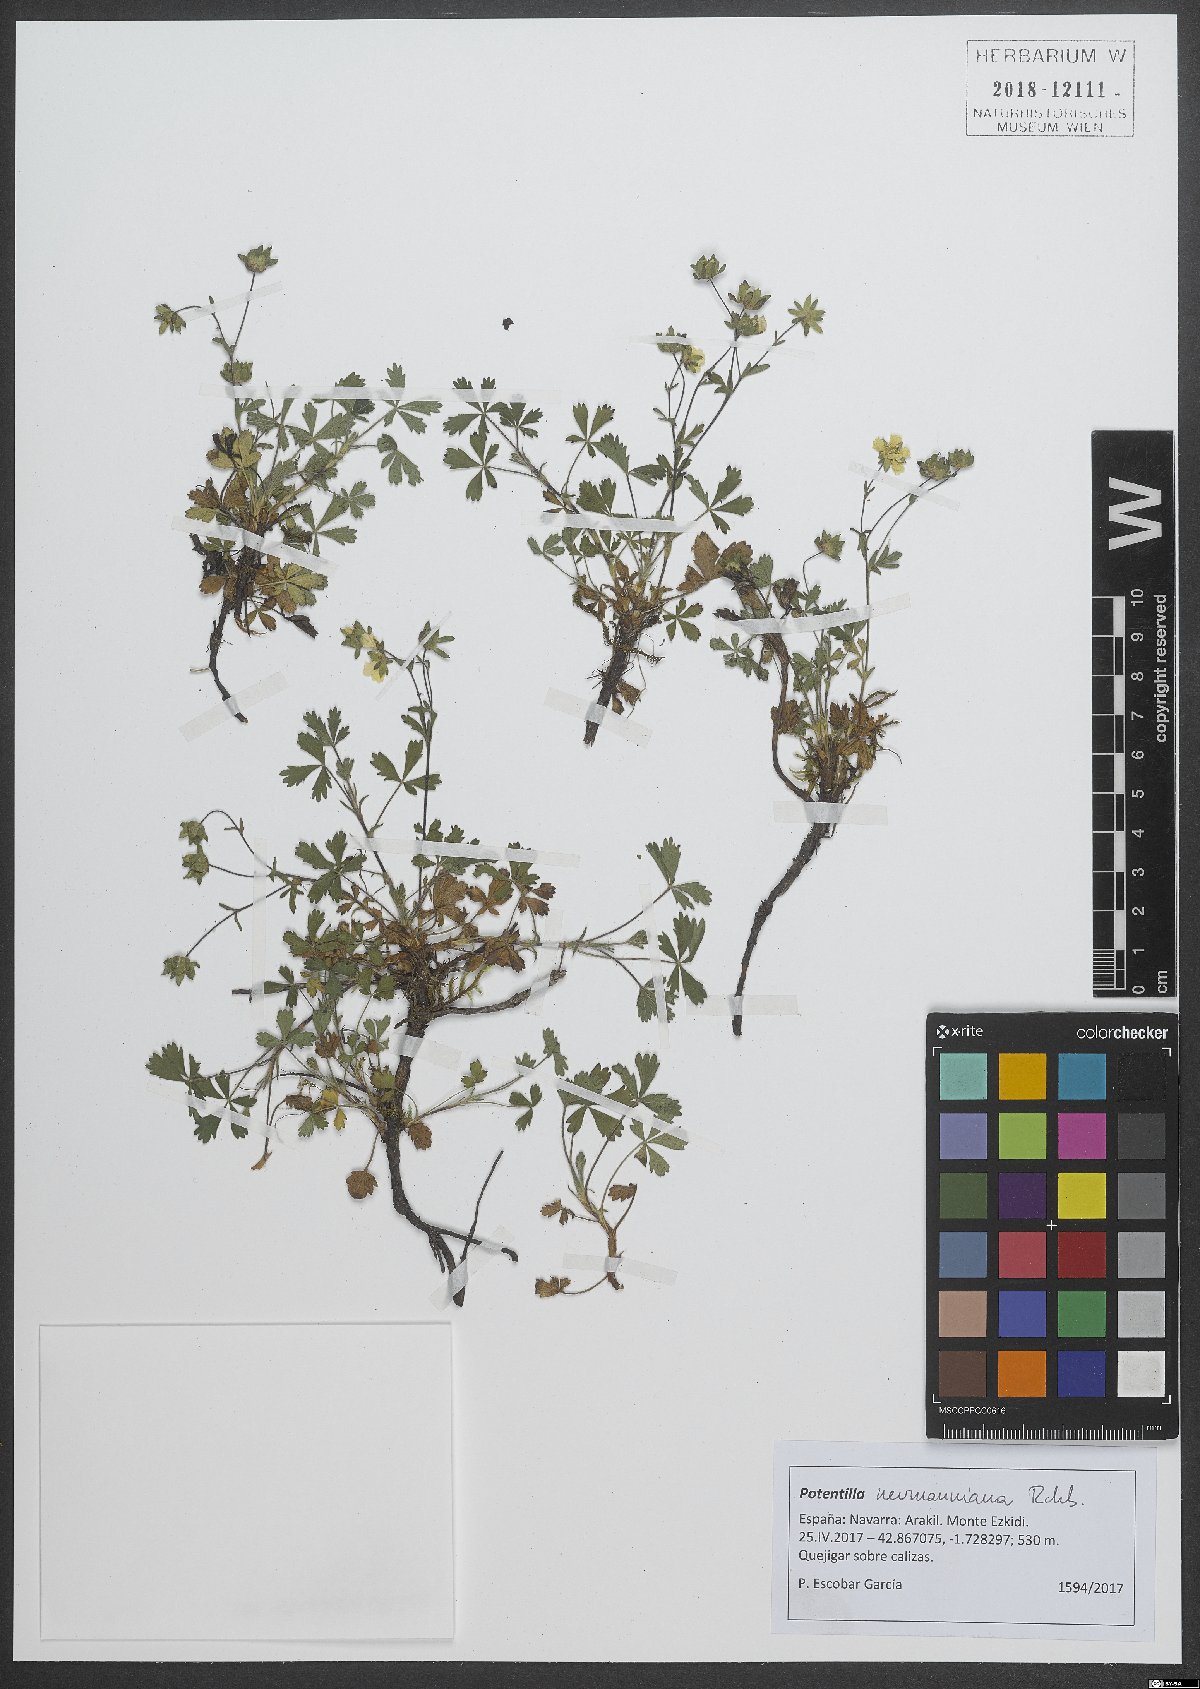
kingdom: Plantae
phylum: Tracheophyta
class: Magnoliopsida
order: Rosales
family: Rosaceae
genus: Potentilla
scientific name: Potentilla verna
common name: Spring cinquefoil
